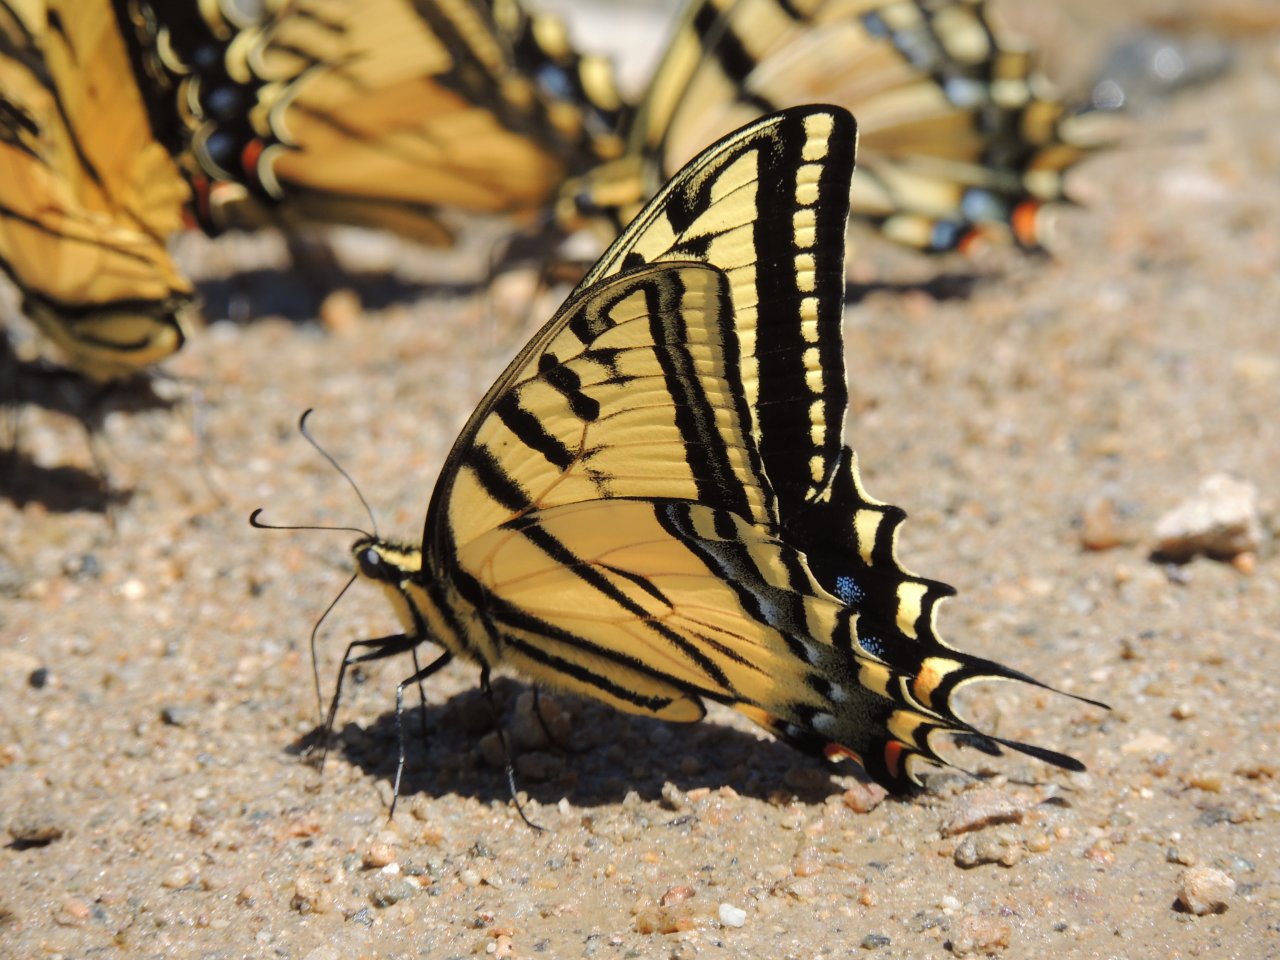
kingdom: Animalia
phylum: Arthropoda
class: Insecta
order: Lepidoptera
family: Papilionidae
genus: Papilio
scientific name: Papilio multicaudata
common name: Two-tailed Swallowtail
